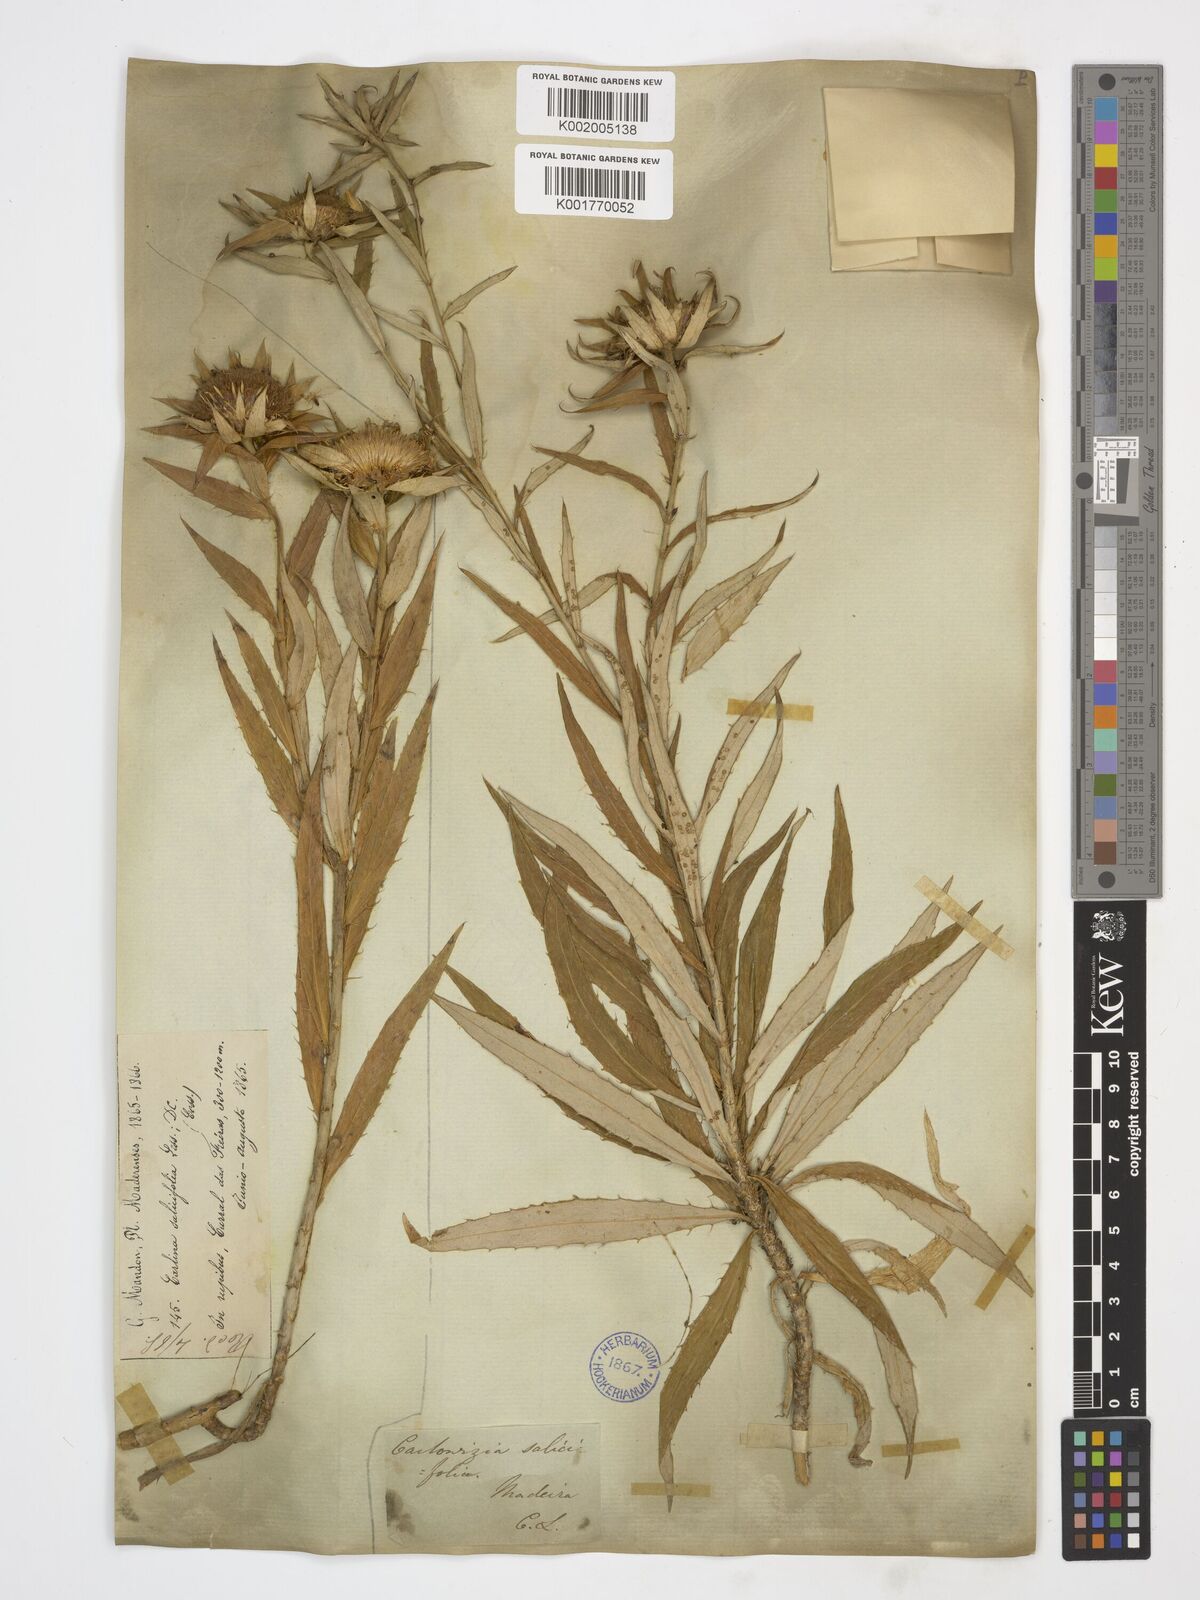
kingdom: Plantae
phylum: Tracheophyta
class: Magnoliopsida
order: Asterales
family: Asteraceae
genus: Carlina
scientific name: Carlina salicifolia
